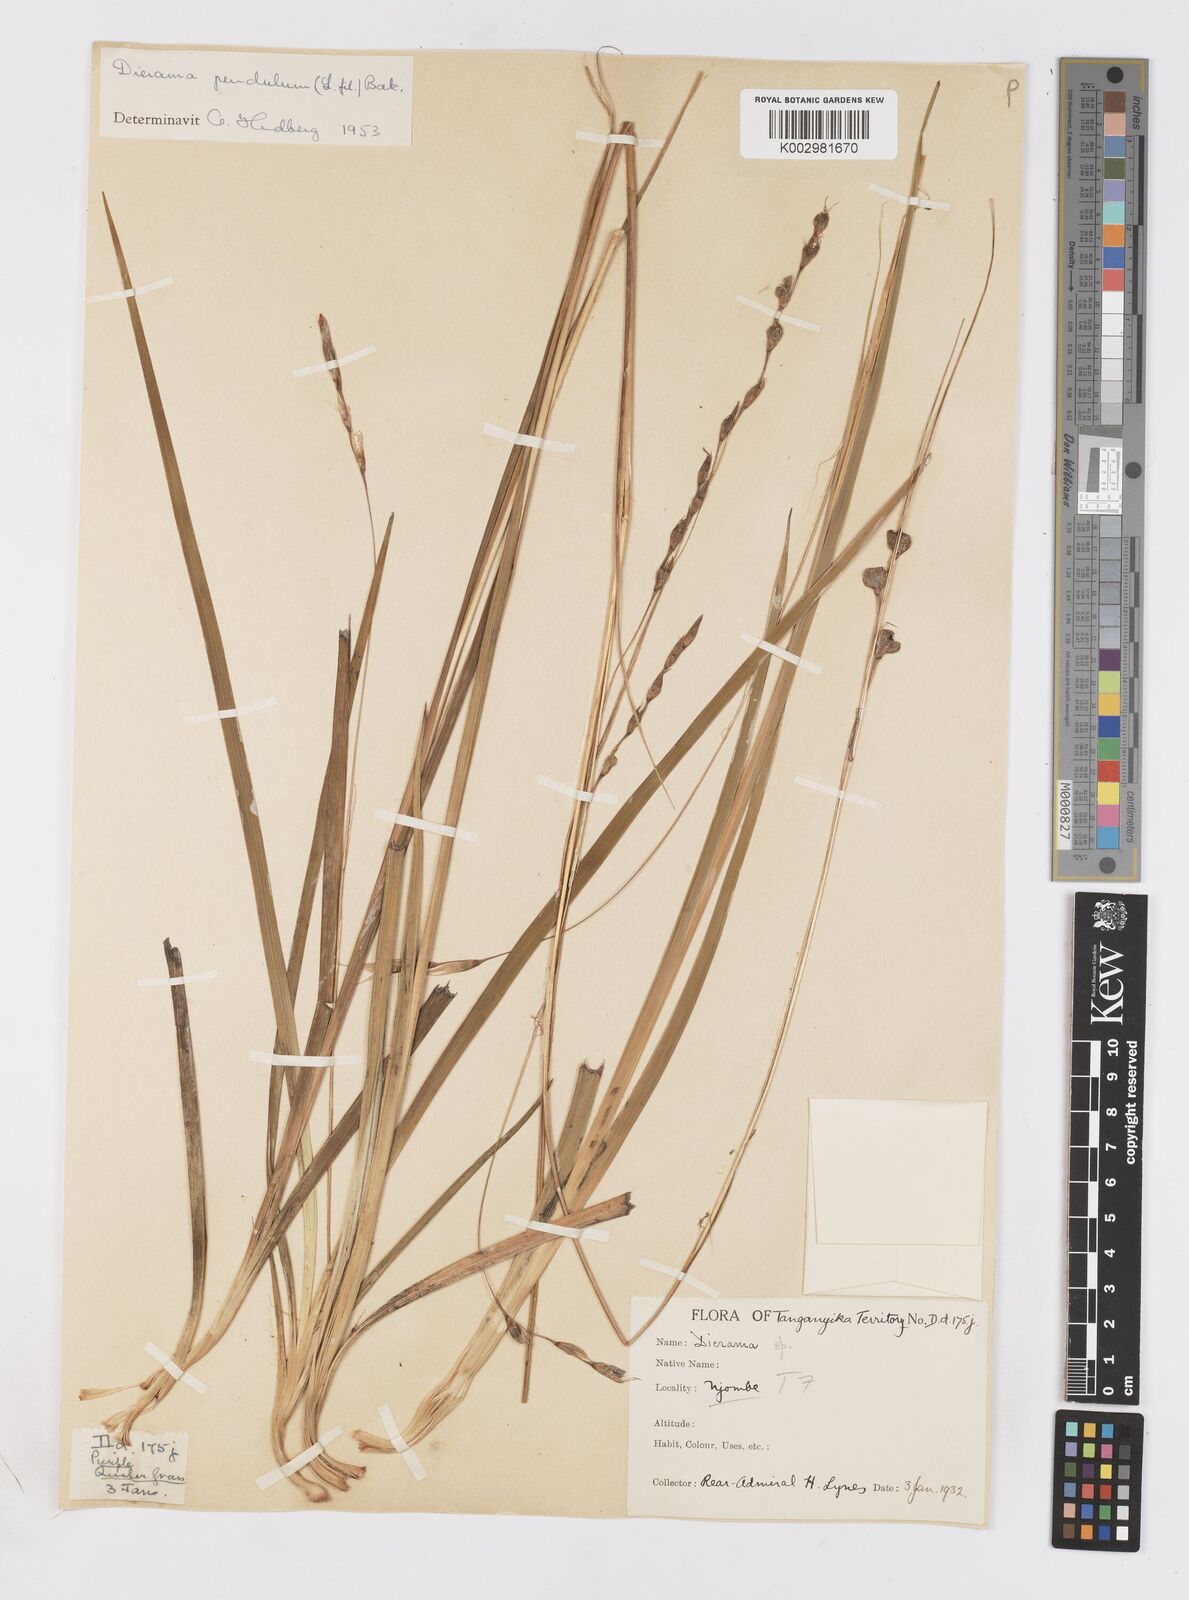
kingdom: Plantae
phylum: Tracheophyta
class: Liliopsida
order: Asparagales
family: Iridaceae
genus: Dierama
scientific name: Dierama longistylum
